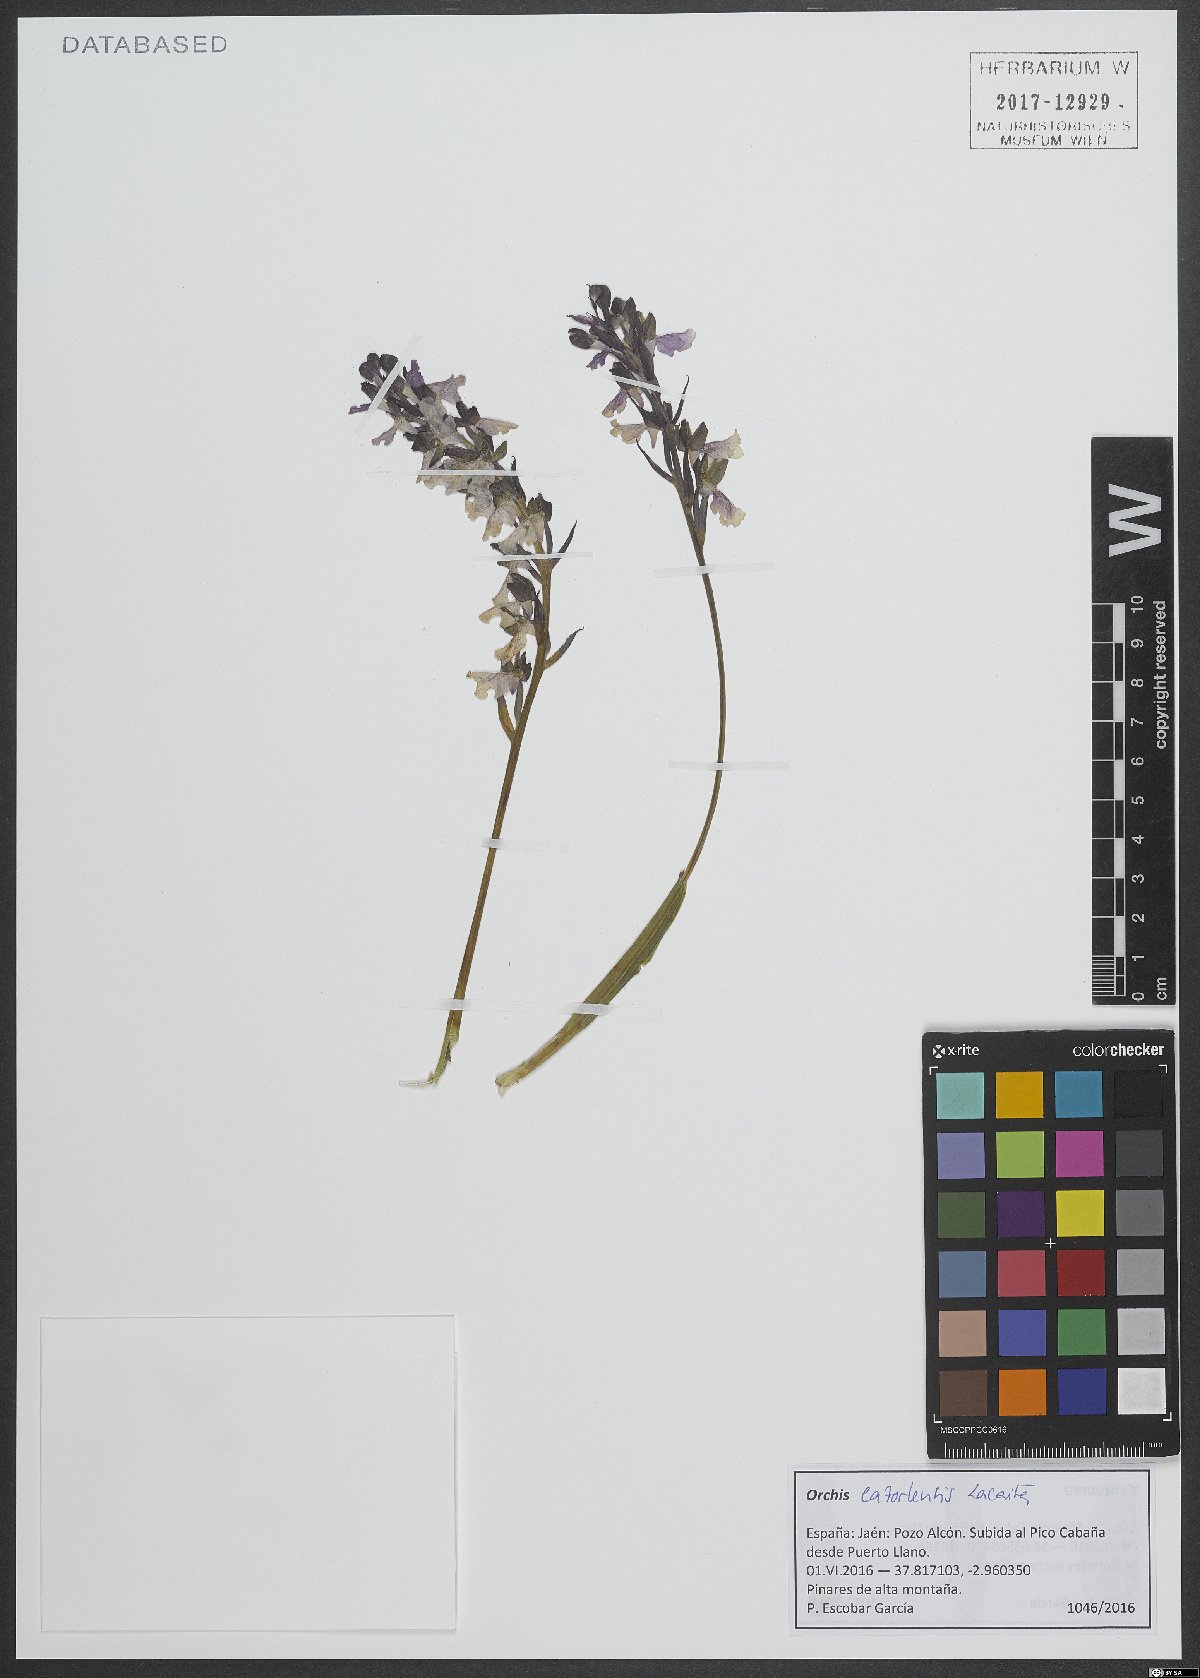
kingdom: Plantae
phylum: Tracheophyta
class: Liliopsida
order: Asparagales
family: Orchidaceae
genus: Orchis
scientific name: Orchis spitzelii
